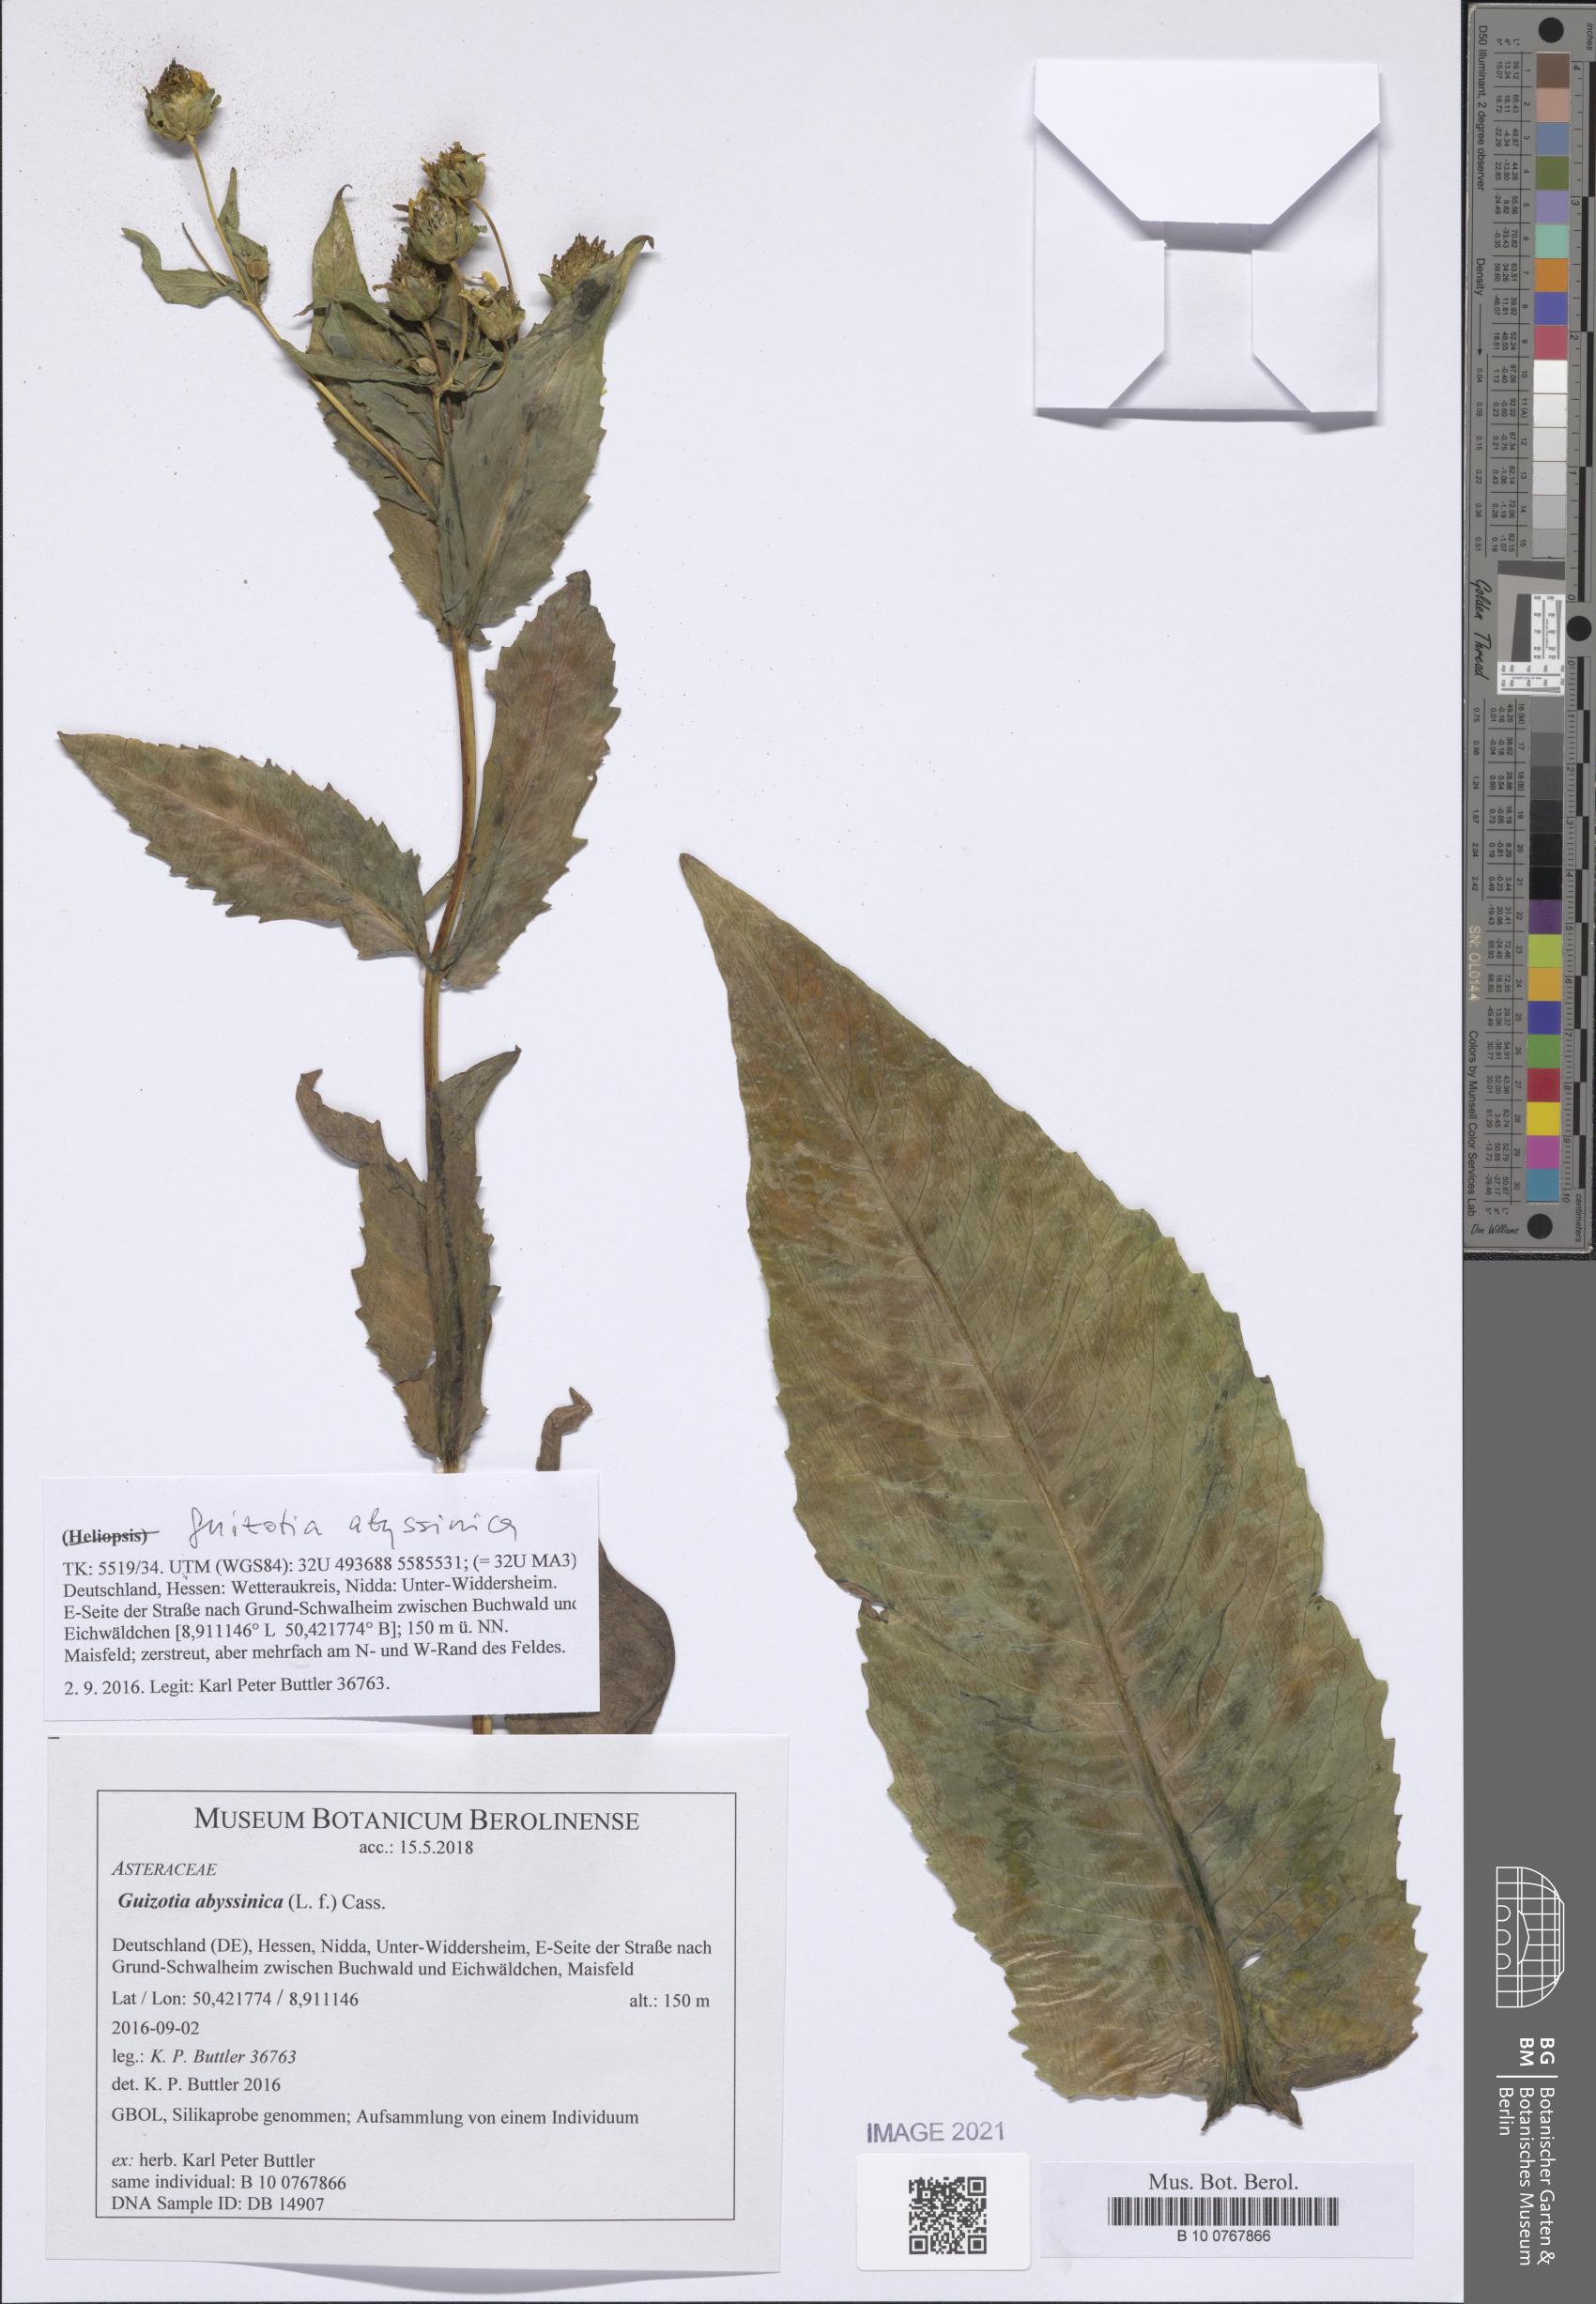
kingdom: Plantae
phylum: Tracheophyta
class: Magnoliopsida
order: Asterales
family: Asteraceae
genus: Guizotia
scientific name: Guizotia abyssinica
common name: Niger
